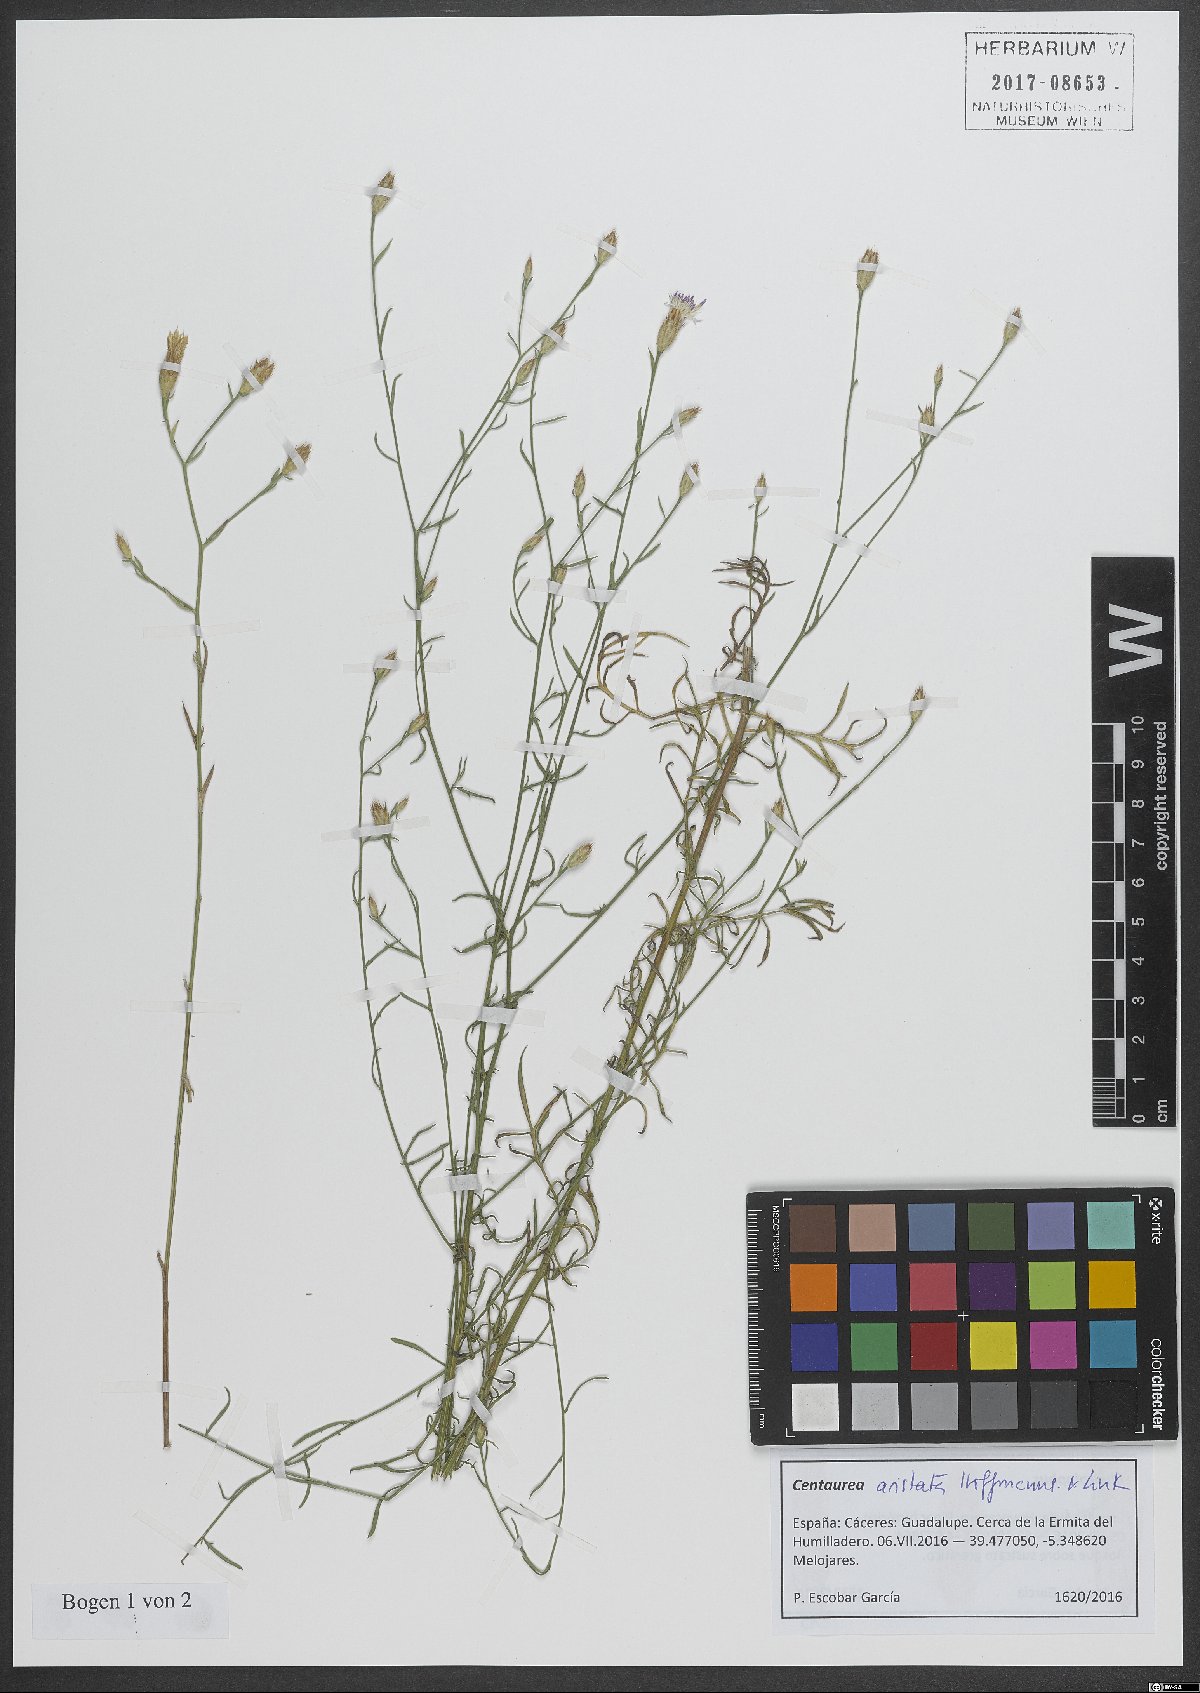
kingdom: Plantae
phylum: Tracheophyta
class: Magnoliopsida
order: Asterales
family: Asteraceae
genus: Centaurea
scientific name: Centaurea aristata
